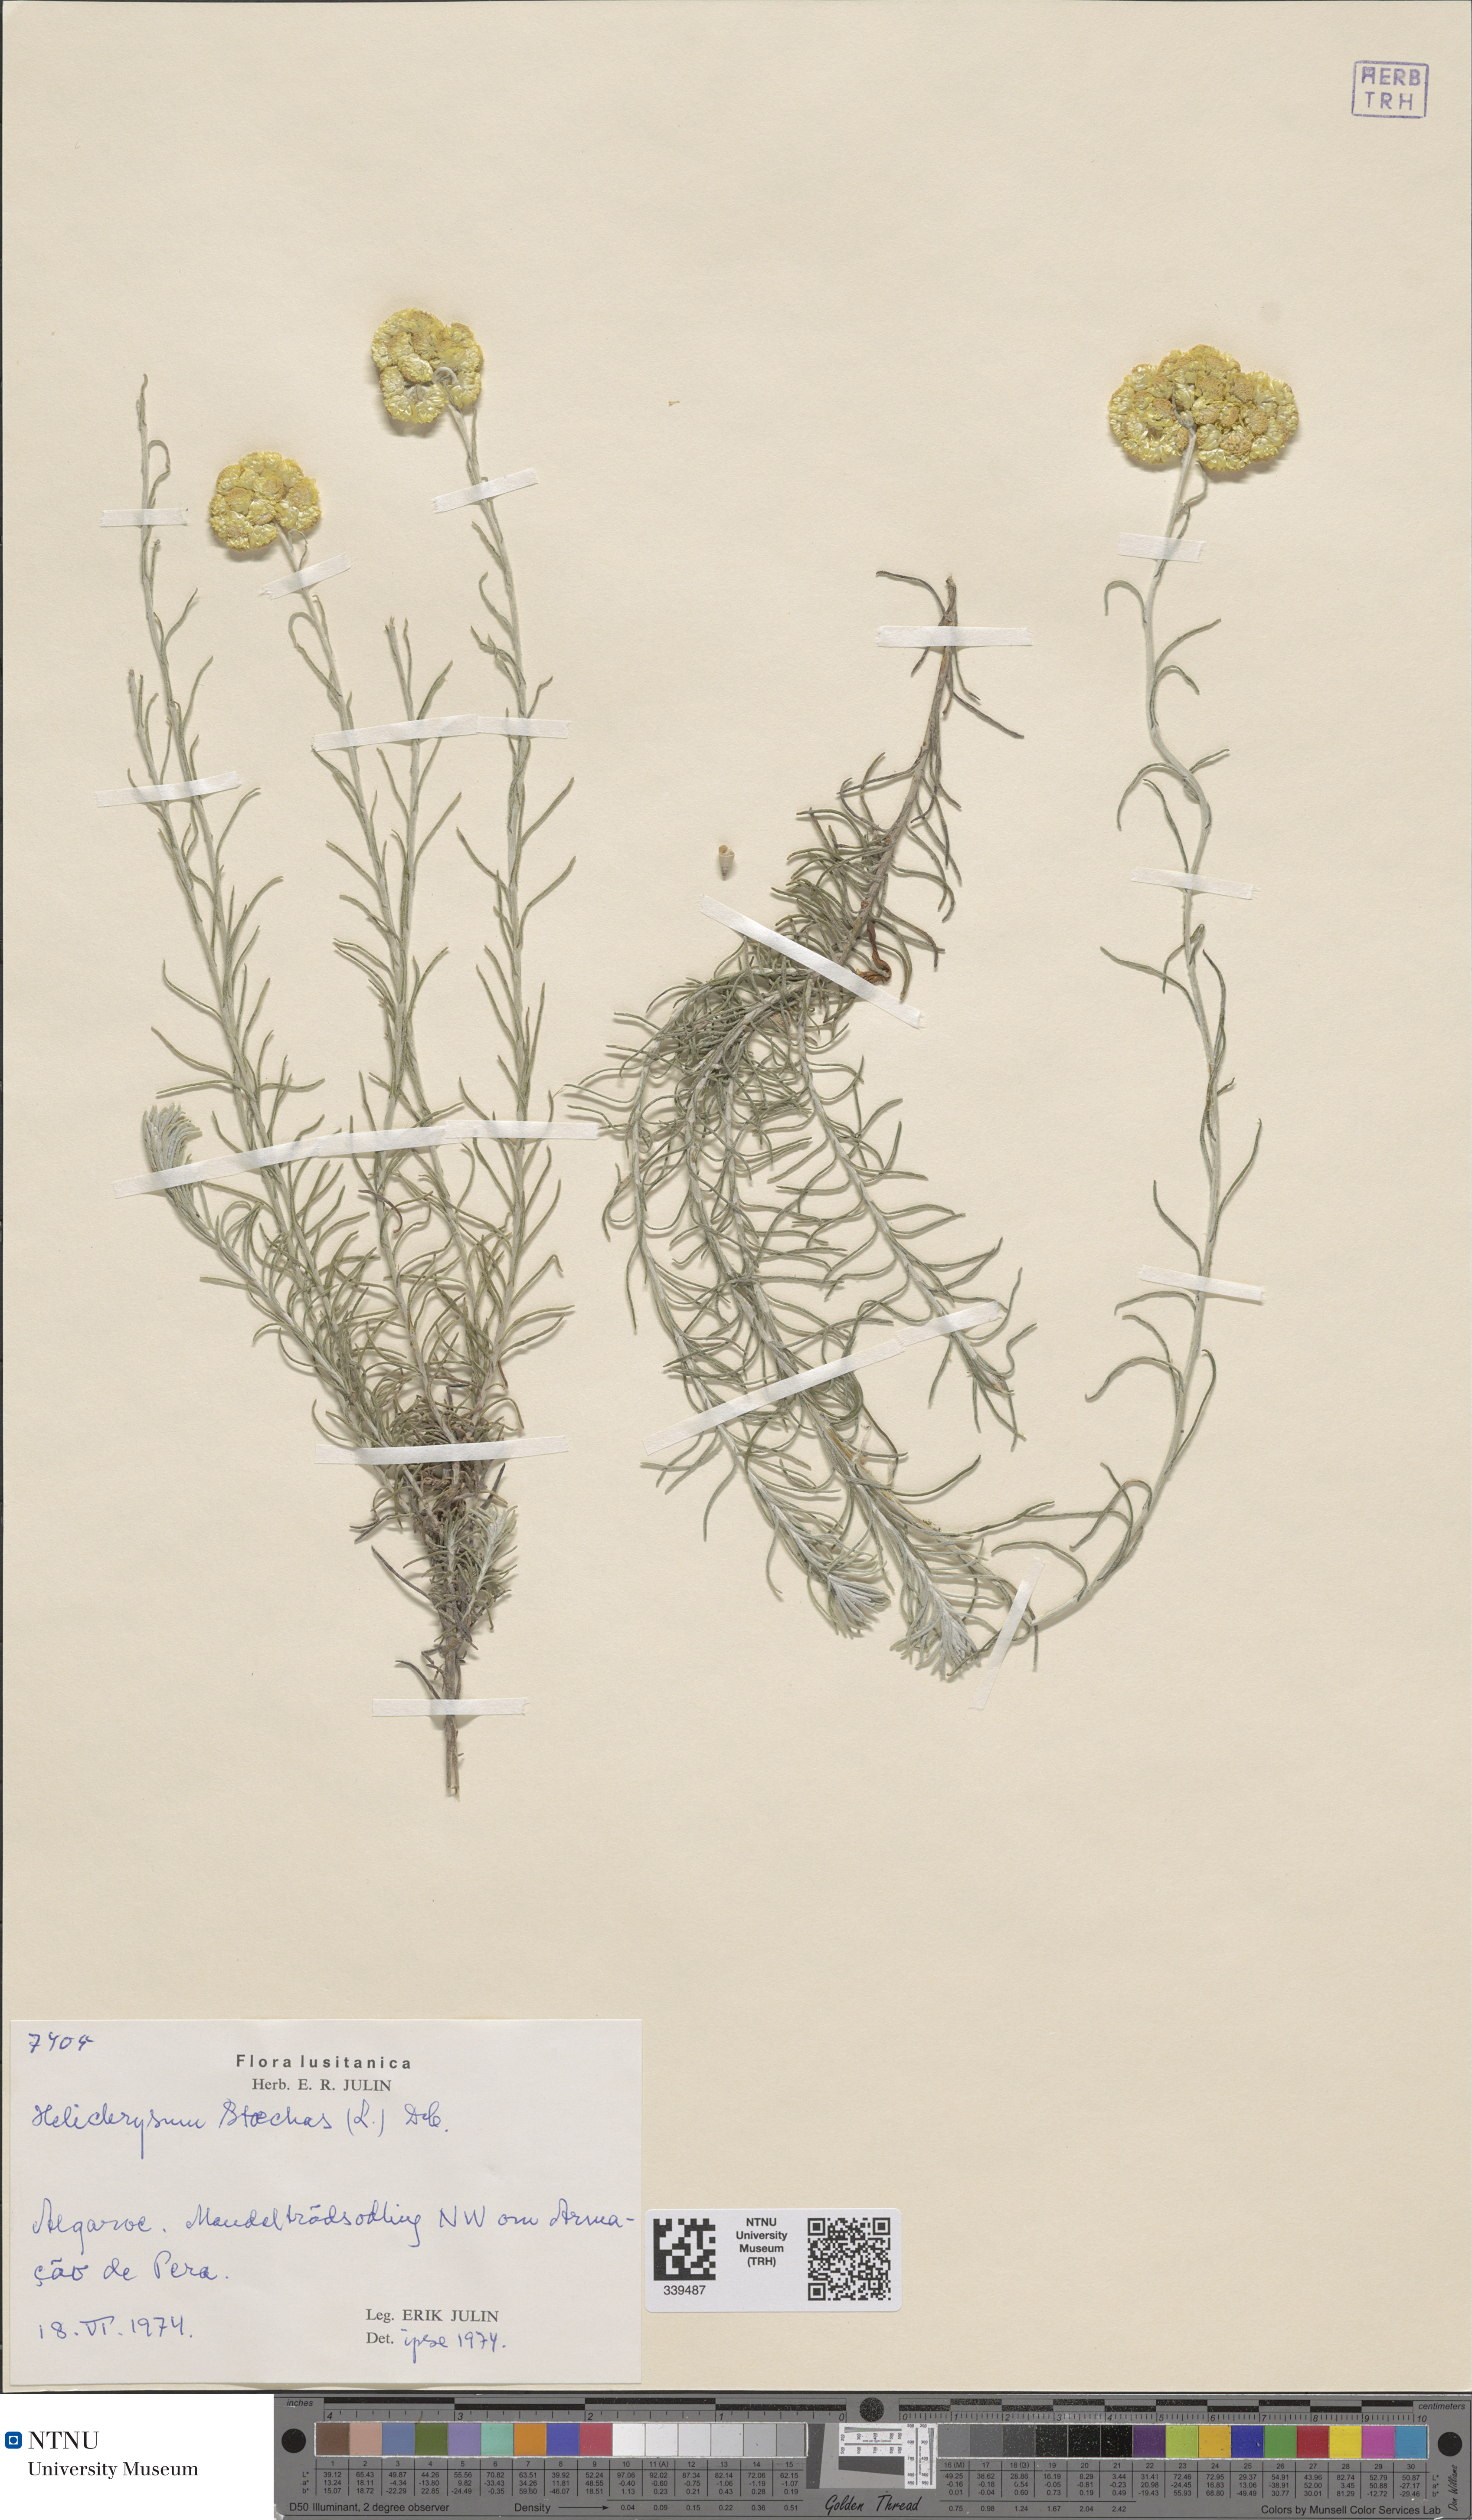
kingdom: Plantae
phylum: Tracheophyta
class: Magnoliopsida
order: Asterales
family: Asteraceae
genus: Helichrysum
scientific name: Helichrysum stoechas
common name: Goldilocks
